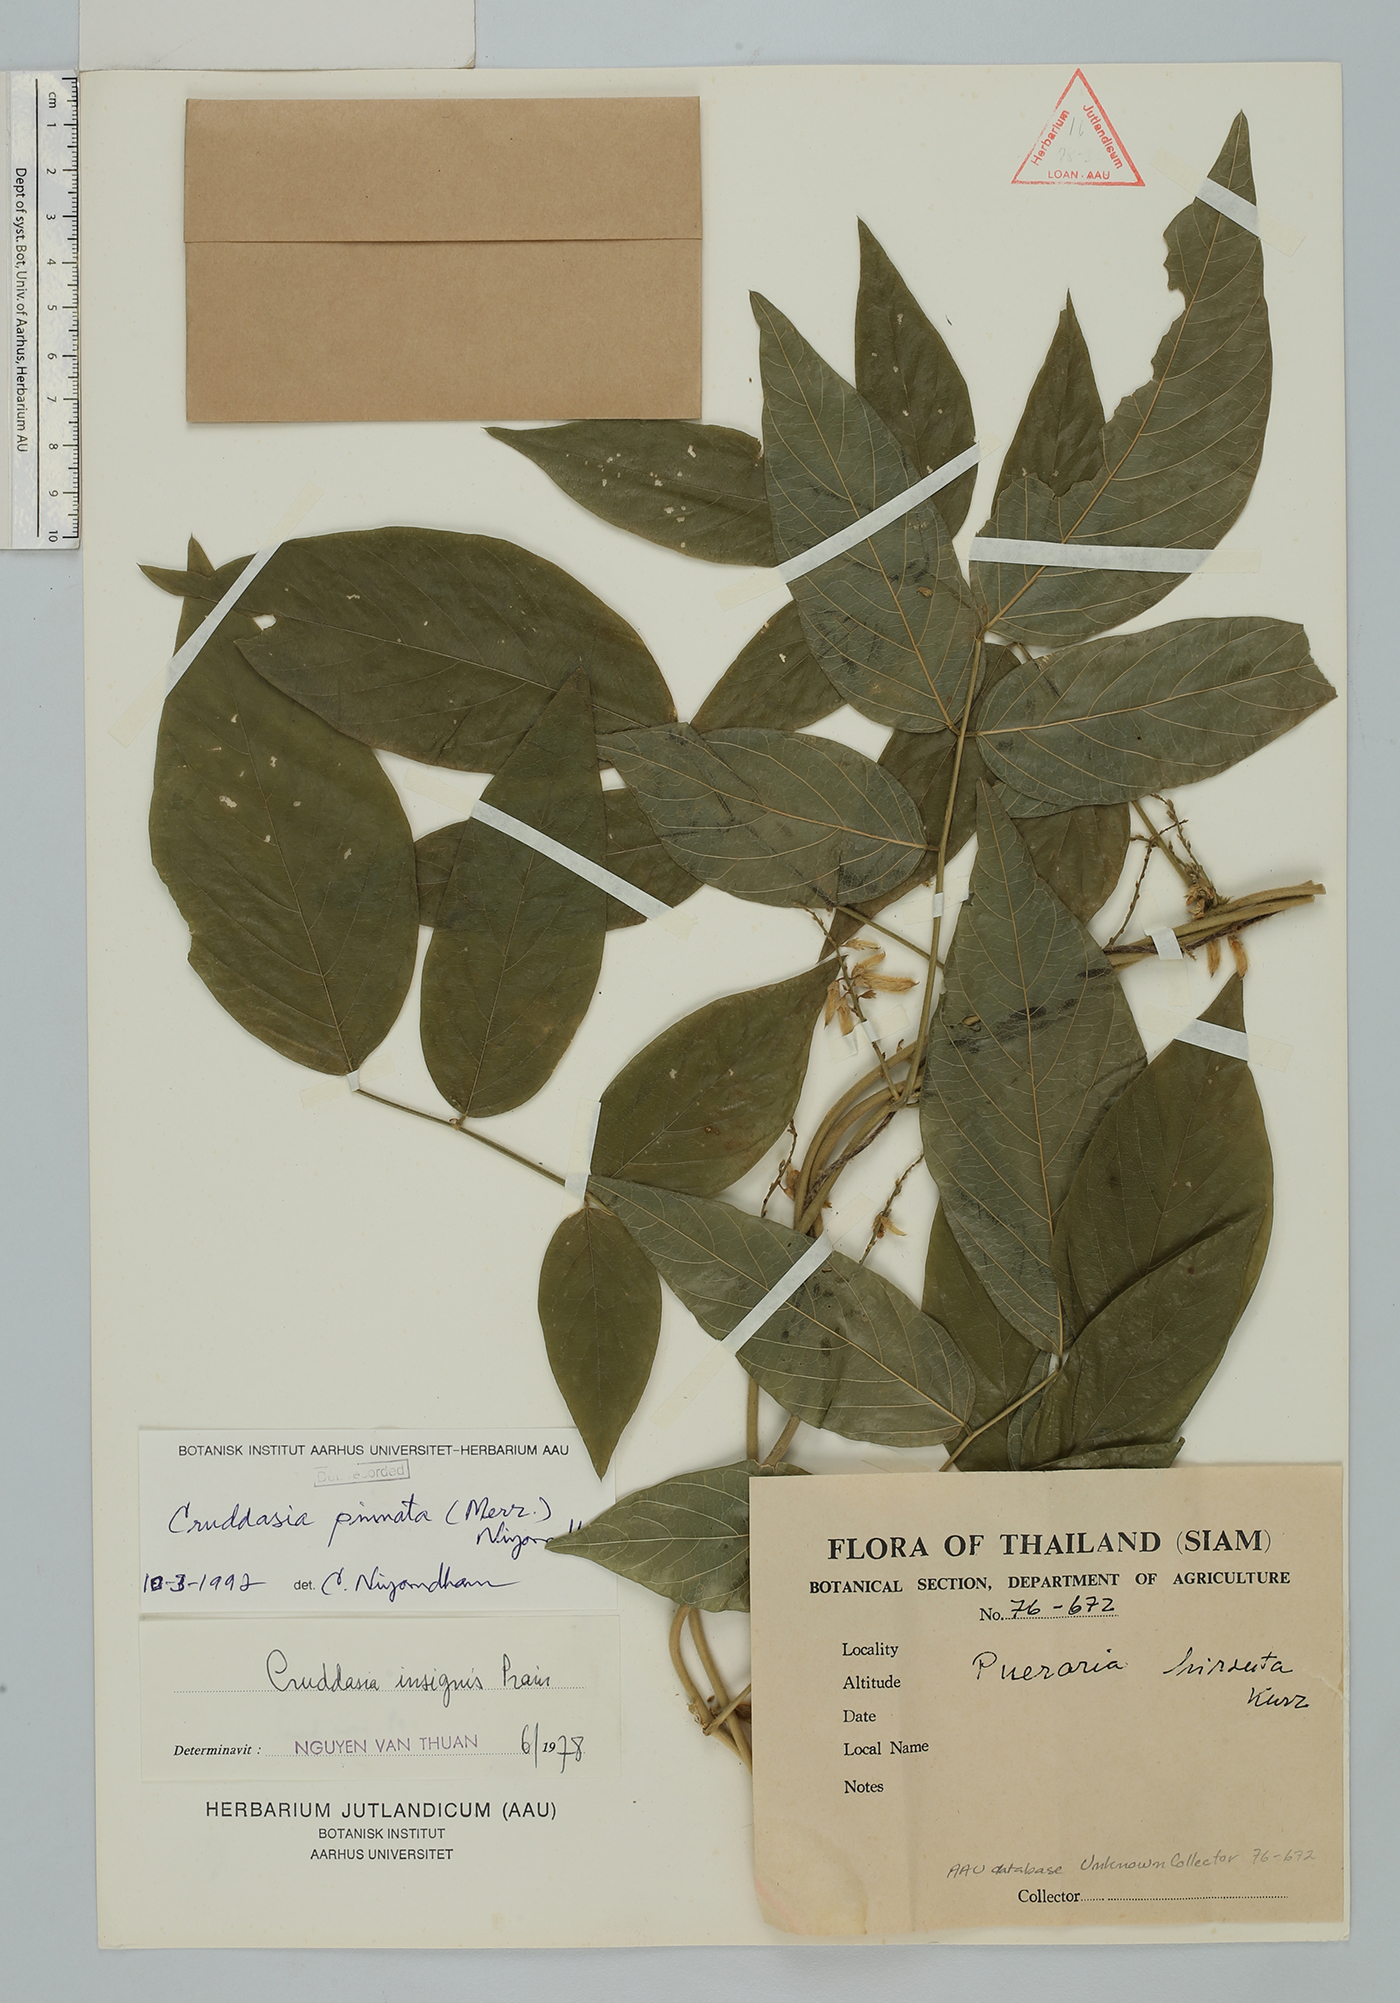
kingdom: Plantae
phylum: Tracheophyta
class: Magnoliopsida
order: Fabales
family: Fabaceae
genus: Cruddasia
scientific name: Cruddasia pinnata
